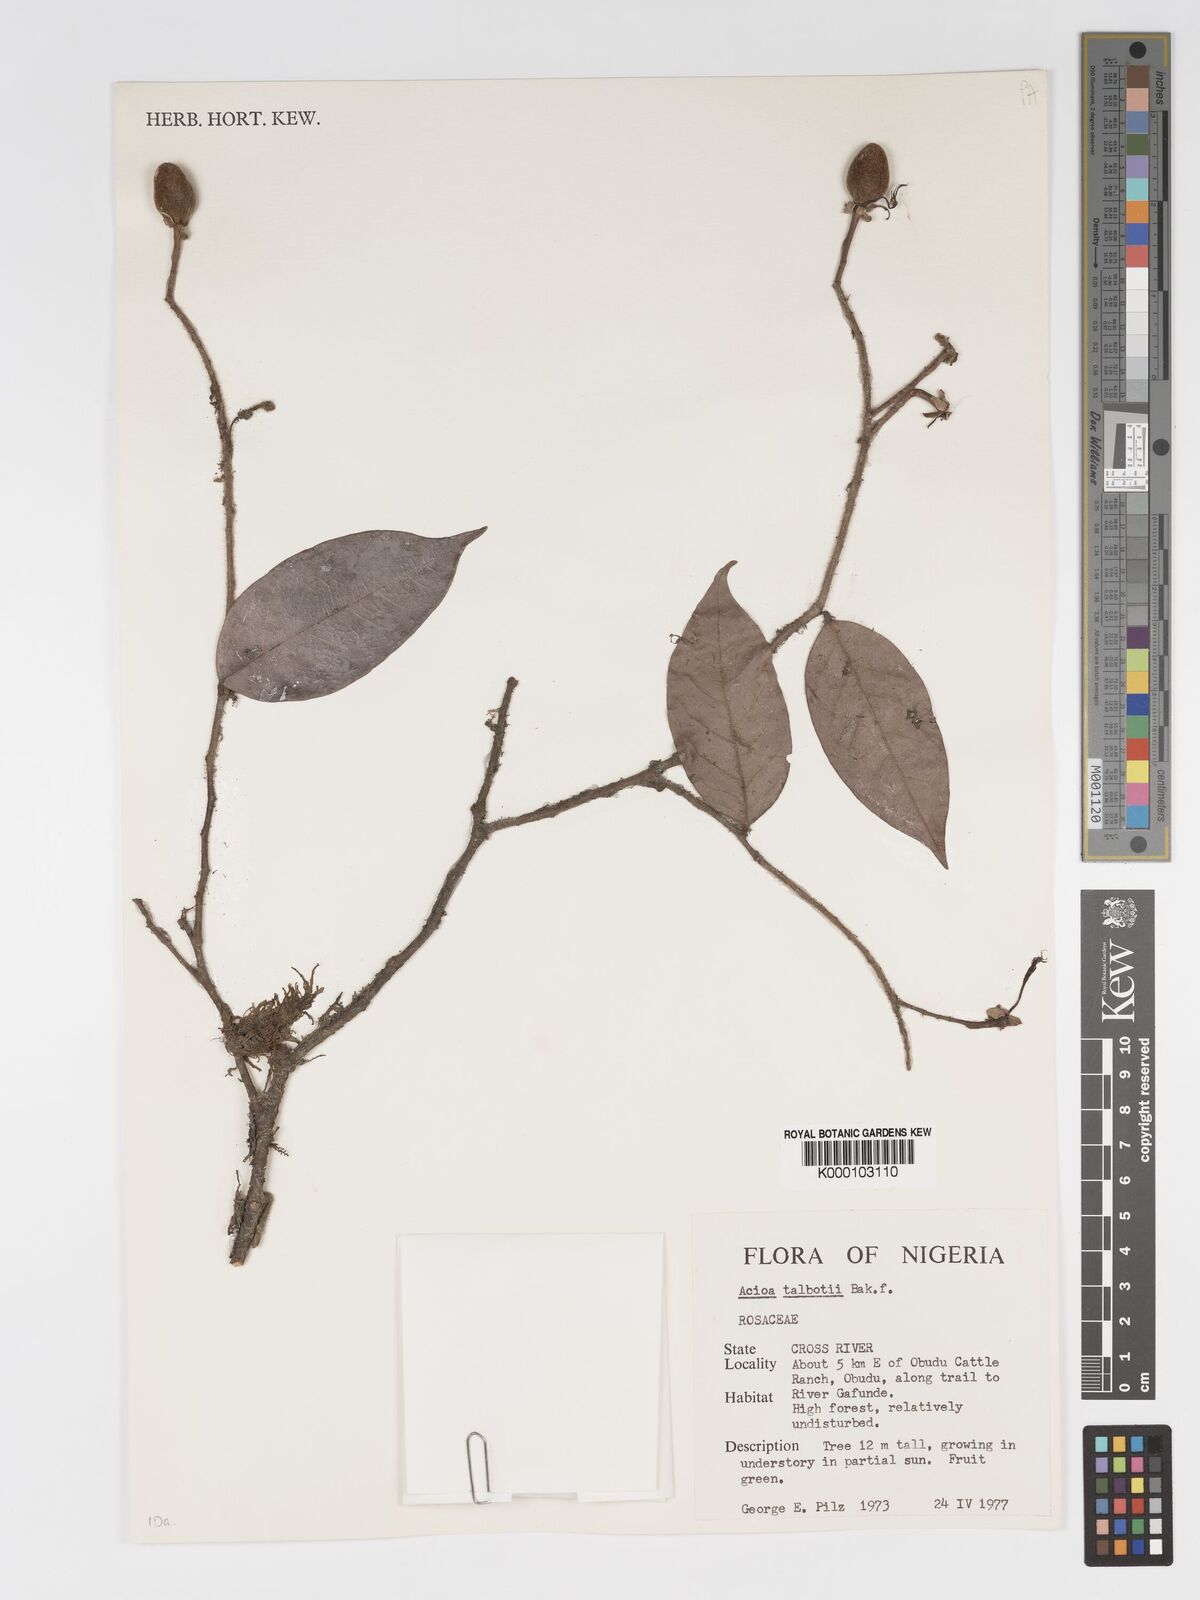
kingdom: Plantae
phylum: Tracheophyta
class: Magnoliopsida
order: Malpighiales
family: Chrysobalanaceae
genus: Dactyladenia
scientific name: Dactyladenia staudtii
